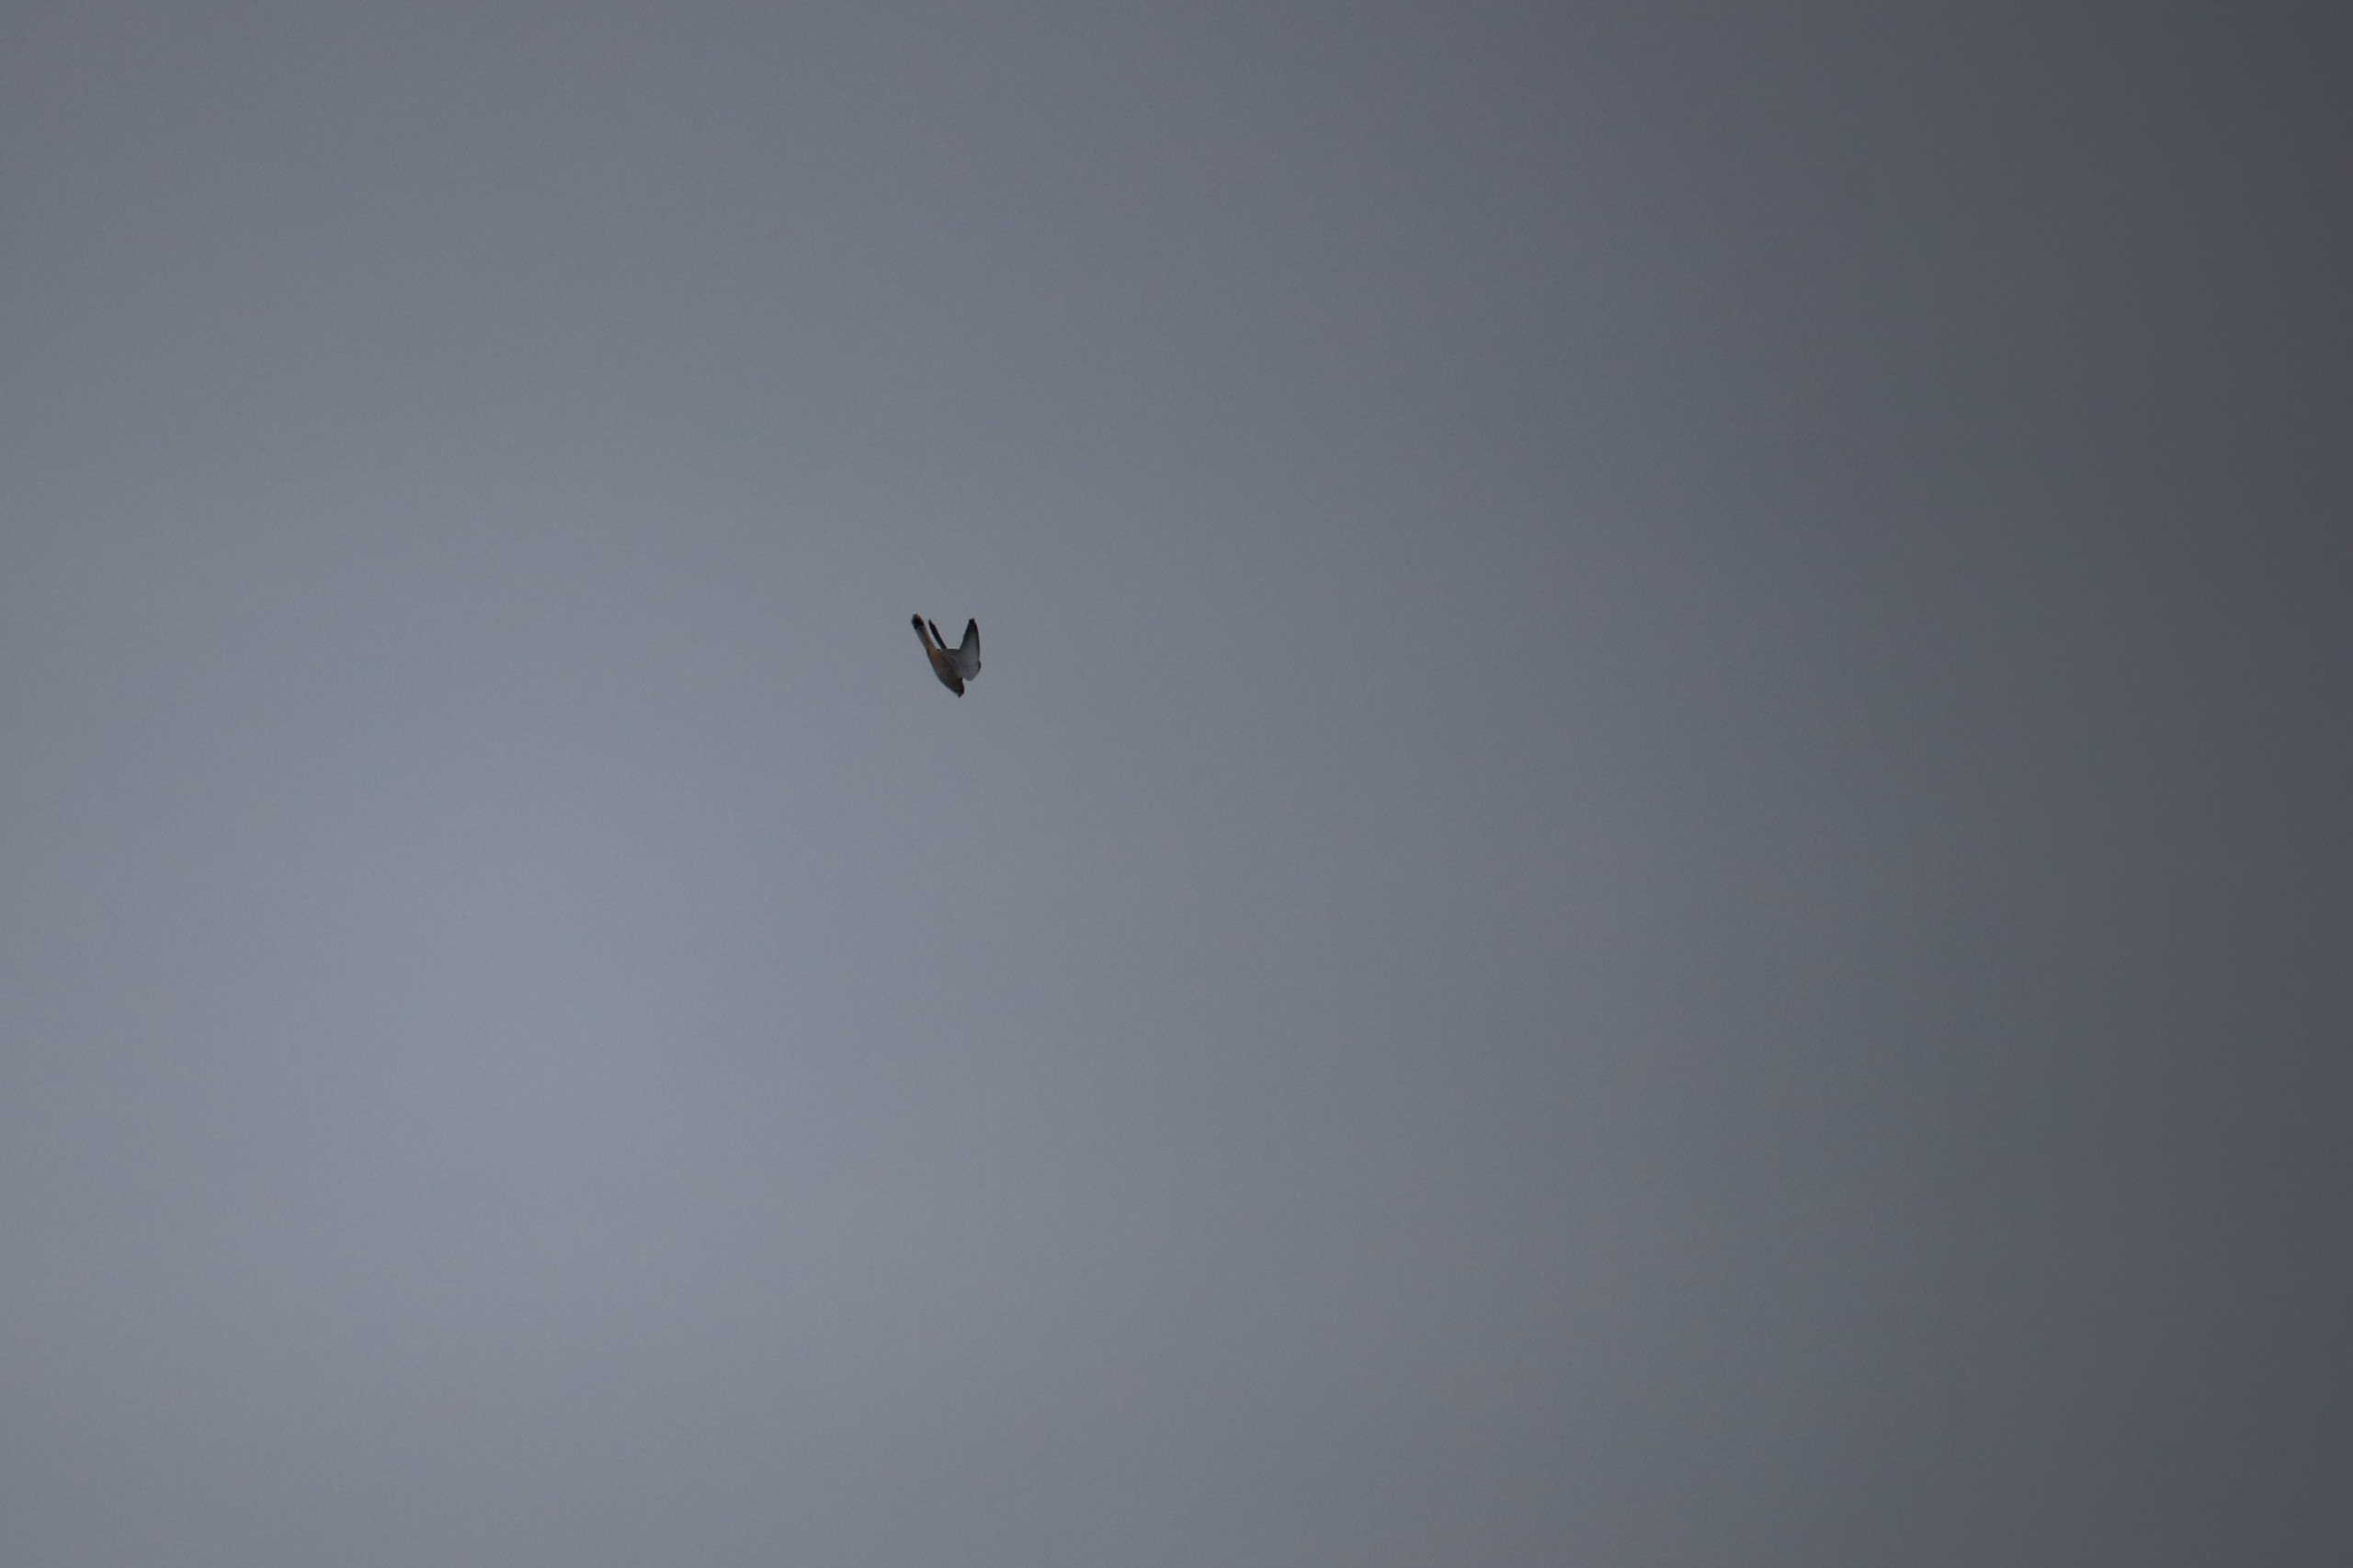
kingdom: Animalia
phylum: Chordata
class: Aves
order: Falconiformes
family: Falconidae
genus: Falco
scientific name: Falco tinnunculus
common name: Tårnfalk
